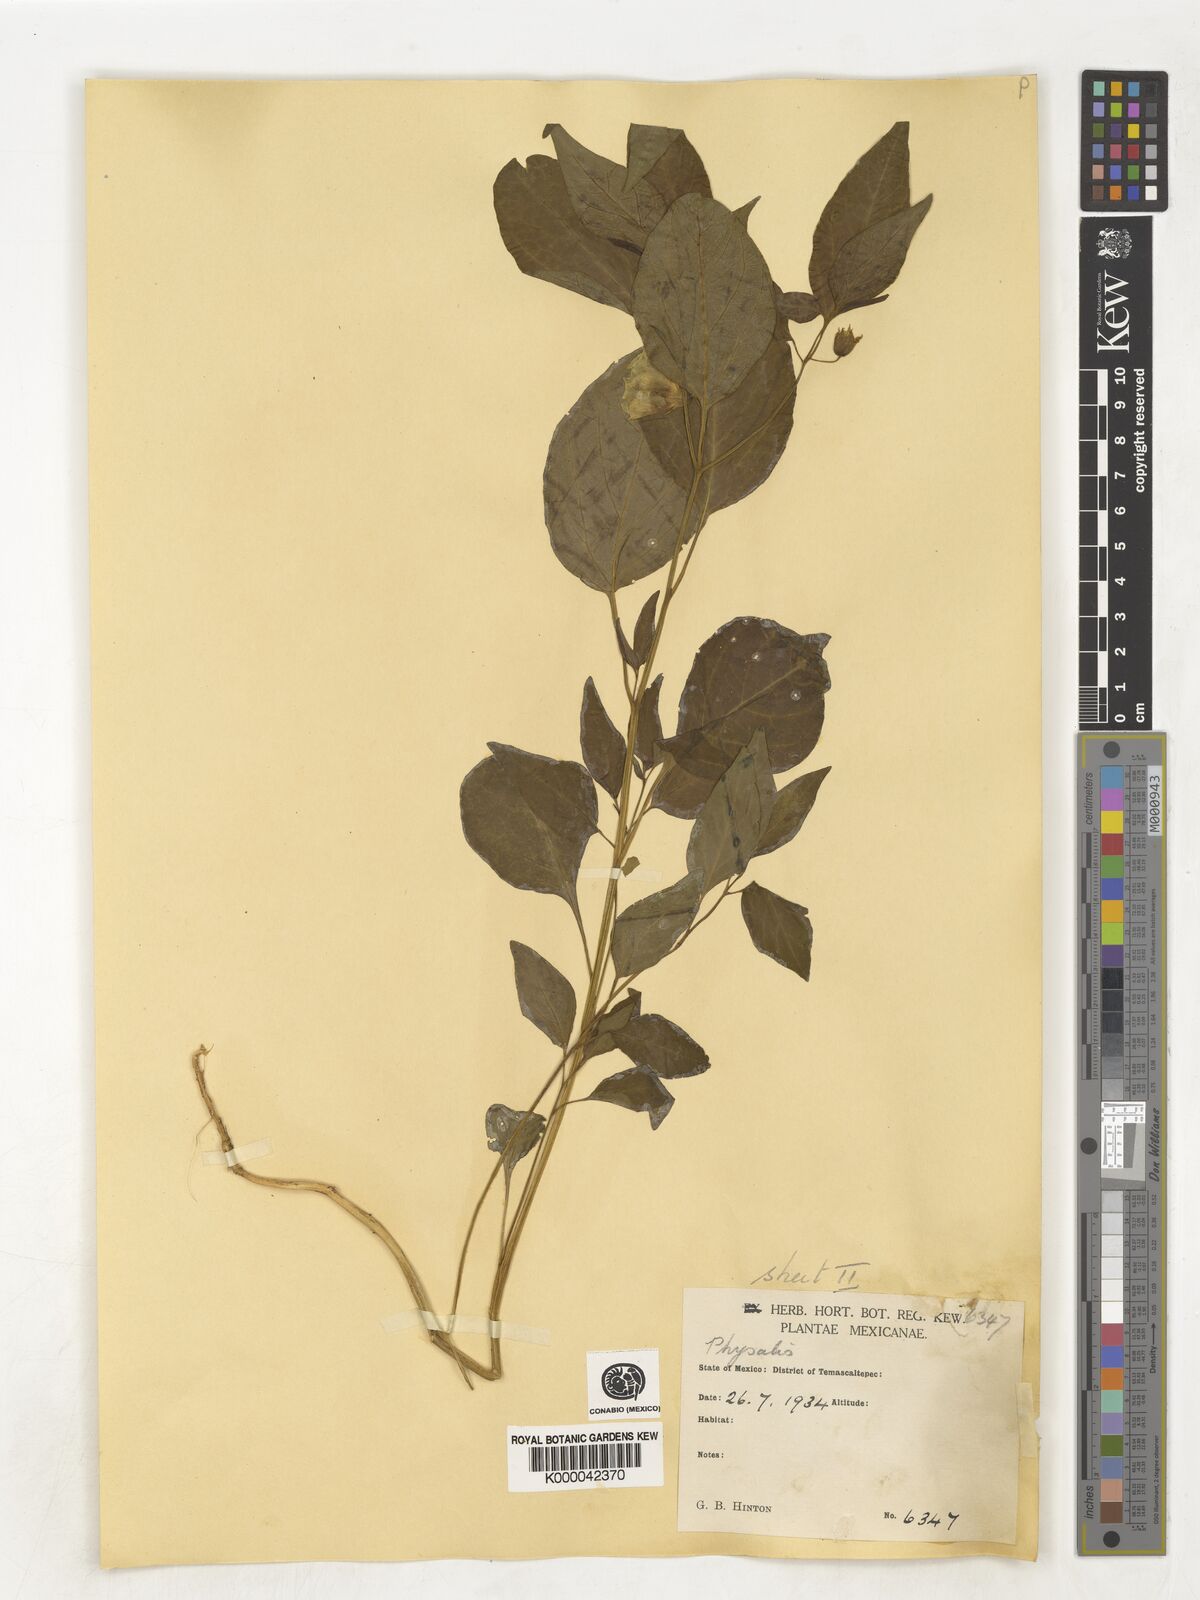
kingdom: Plantae
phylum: Tracheophyta
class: Magnoliopsida
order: Solanales
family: Solanaceae
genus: Physalis
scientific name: Physalis
